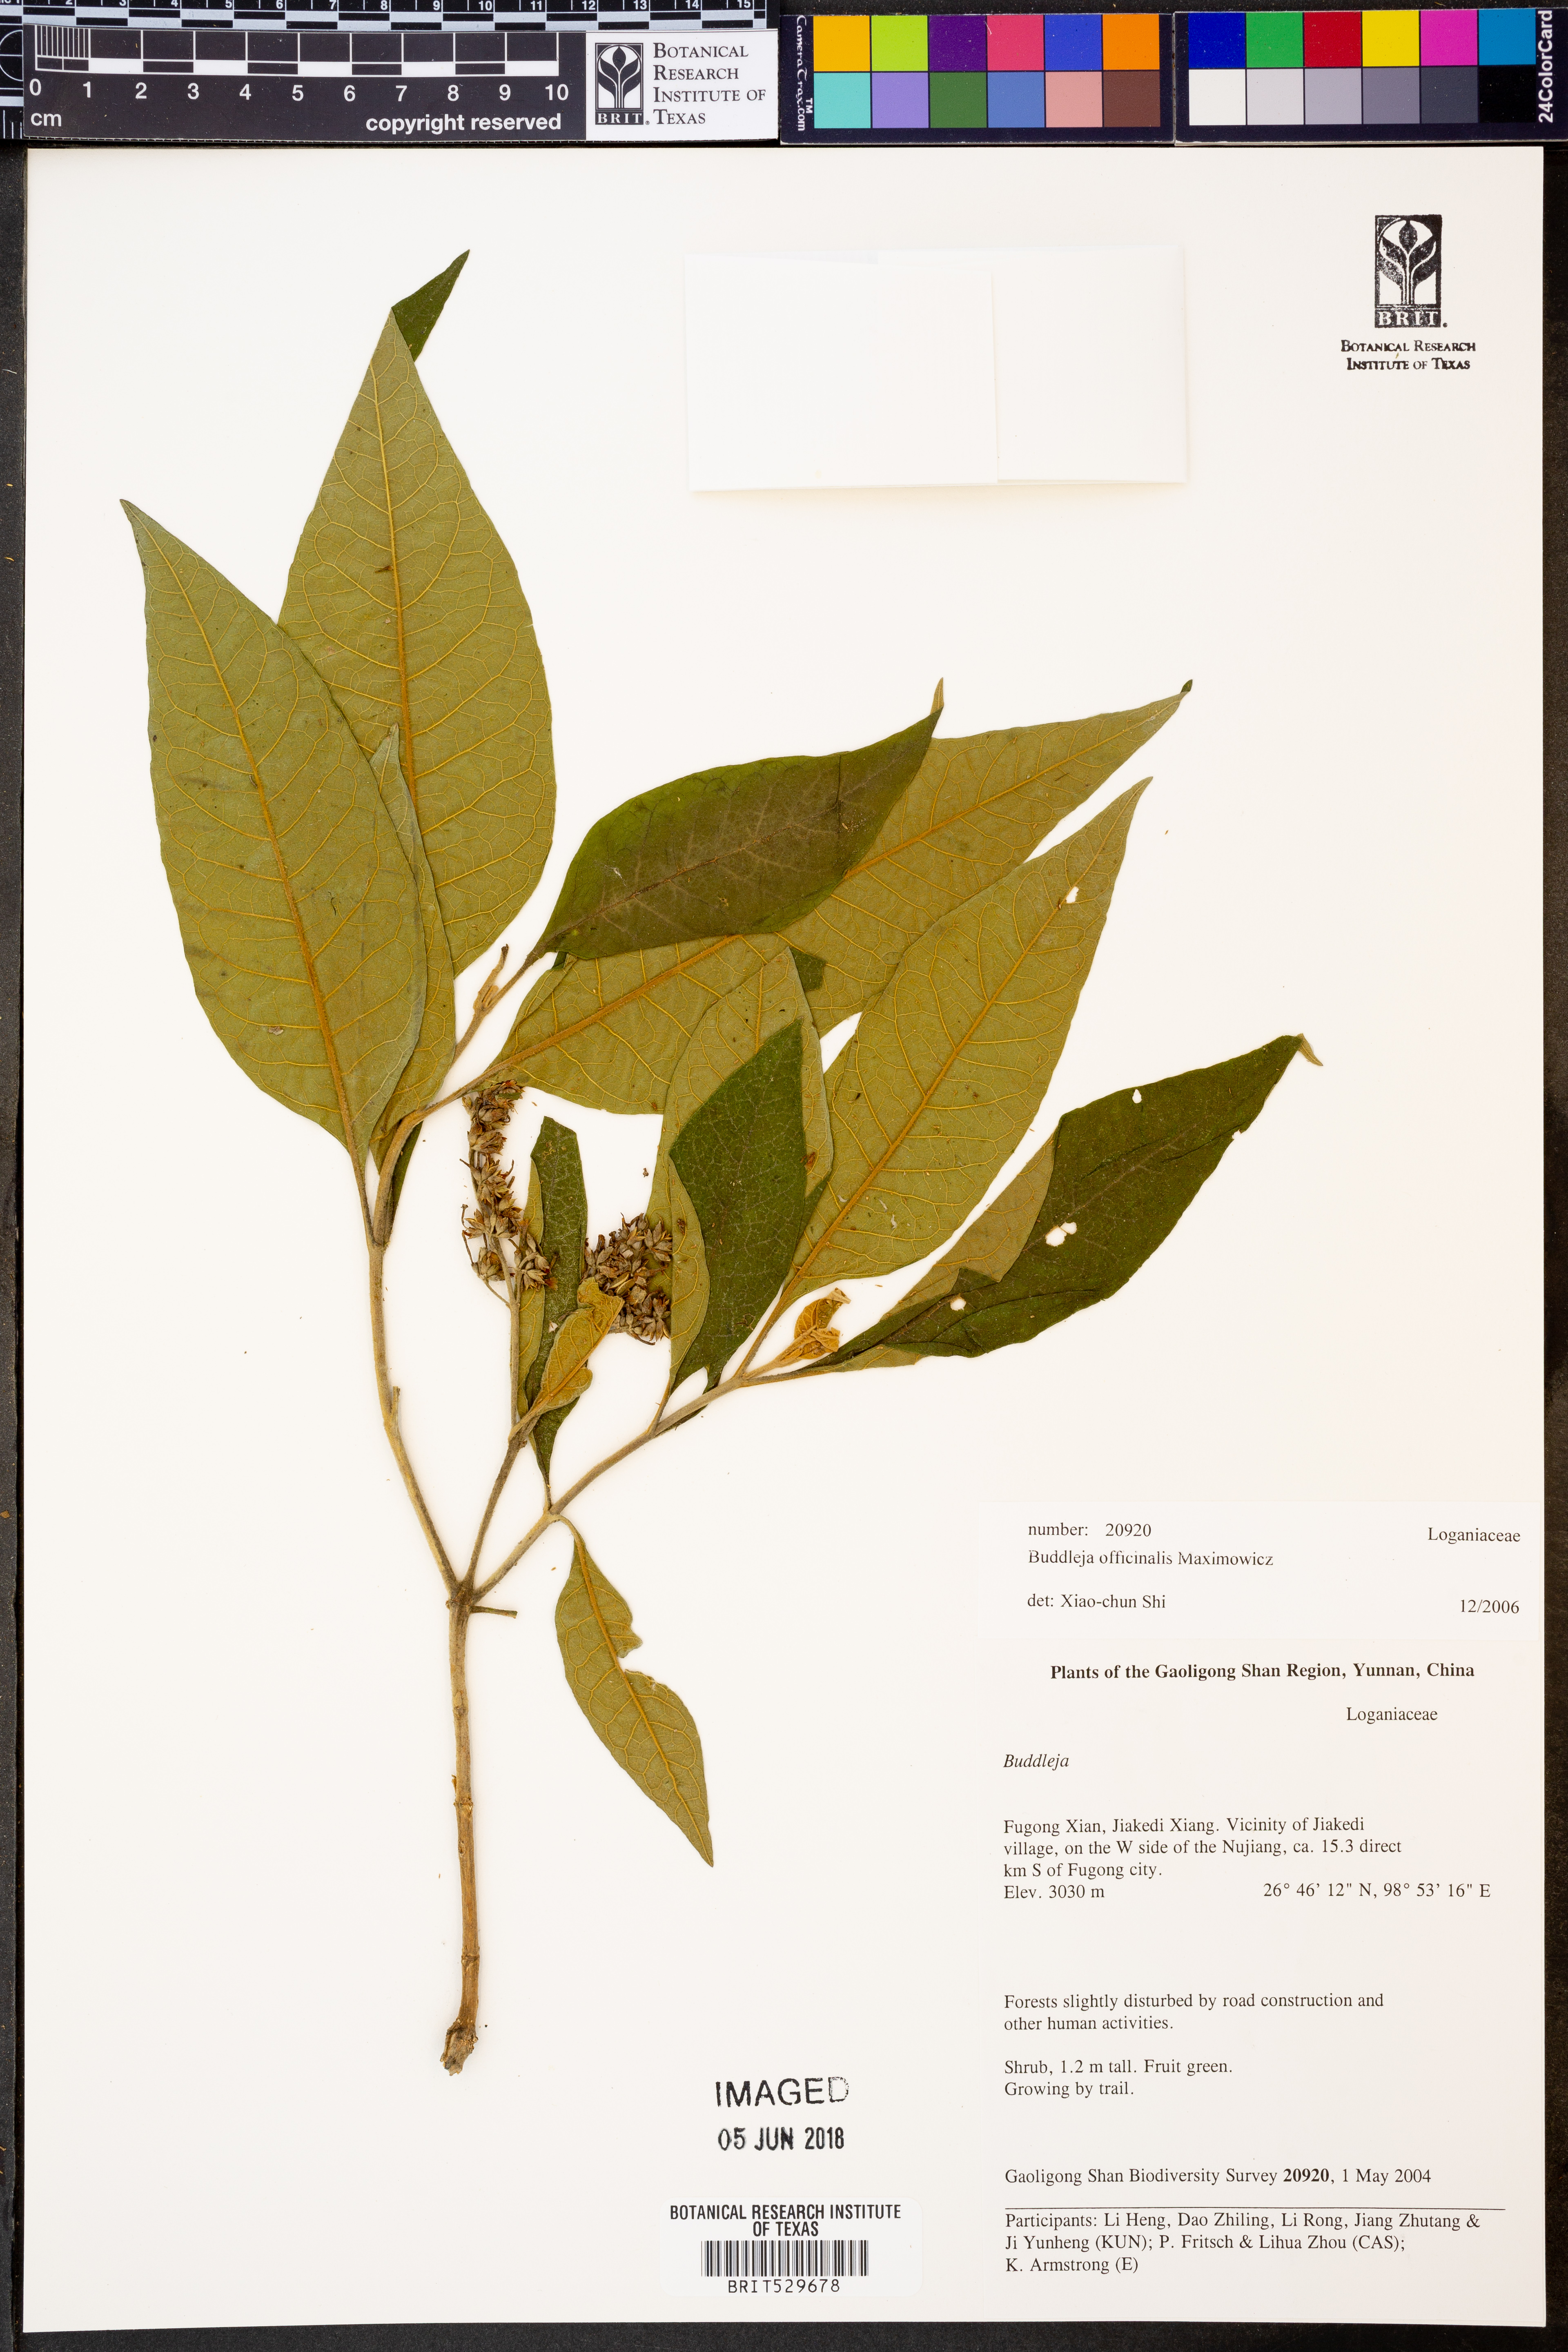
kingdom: Plantae
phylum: Tracheophyta
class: Magnoliopsida
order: Lamiales
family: Scrophulariaceae
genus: Buddleja
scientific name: Buddleja officinalis
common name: Pole butterflybush
